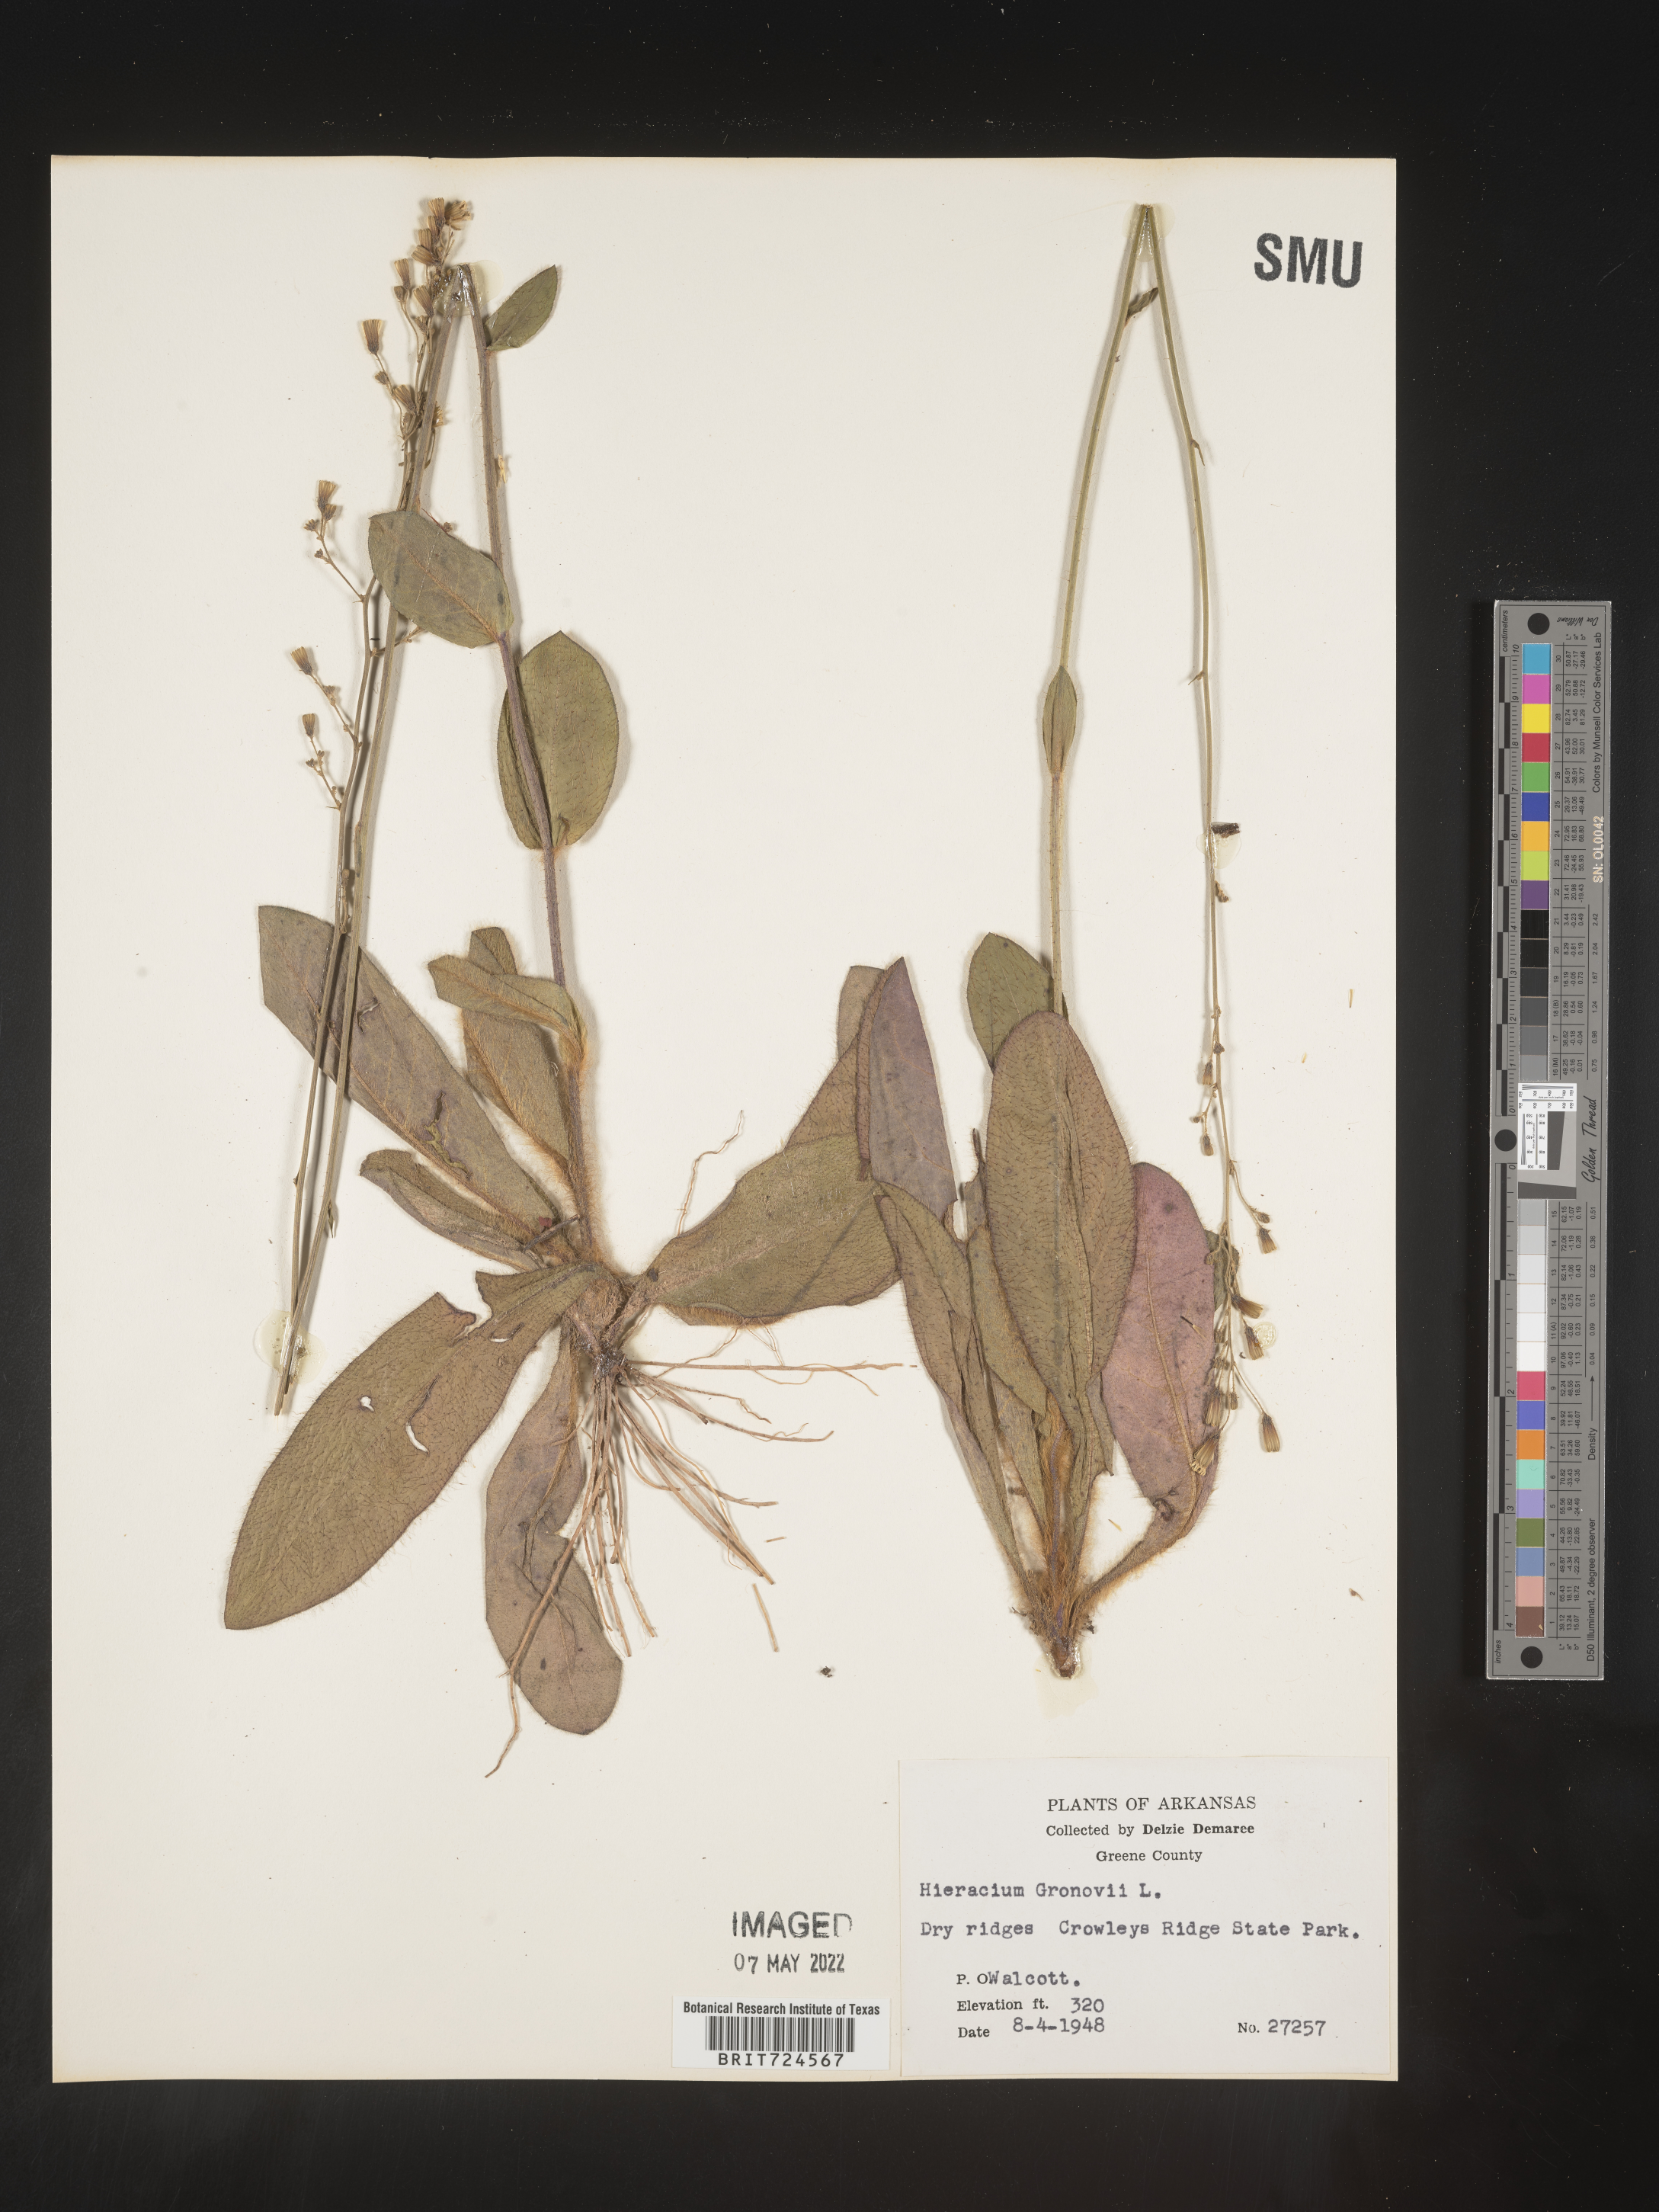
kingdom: Plantae
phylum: Tracheophyta
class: Magnoliopsida
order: Asterales
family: Asteraceae
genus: Hieracium
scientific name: Hieracium gronovii
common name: Beaked hawkweed
